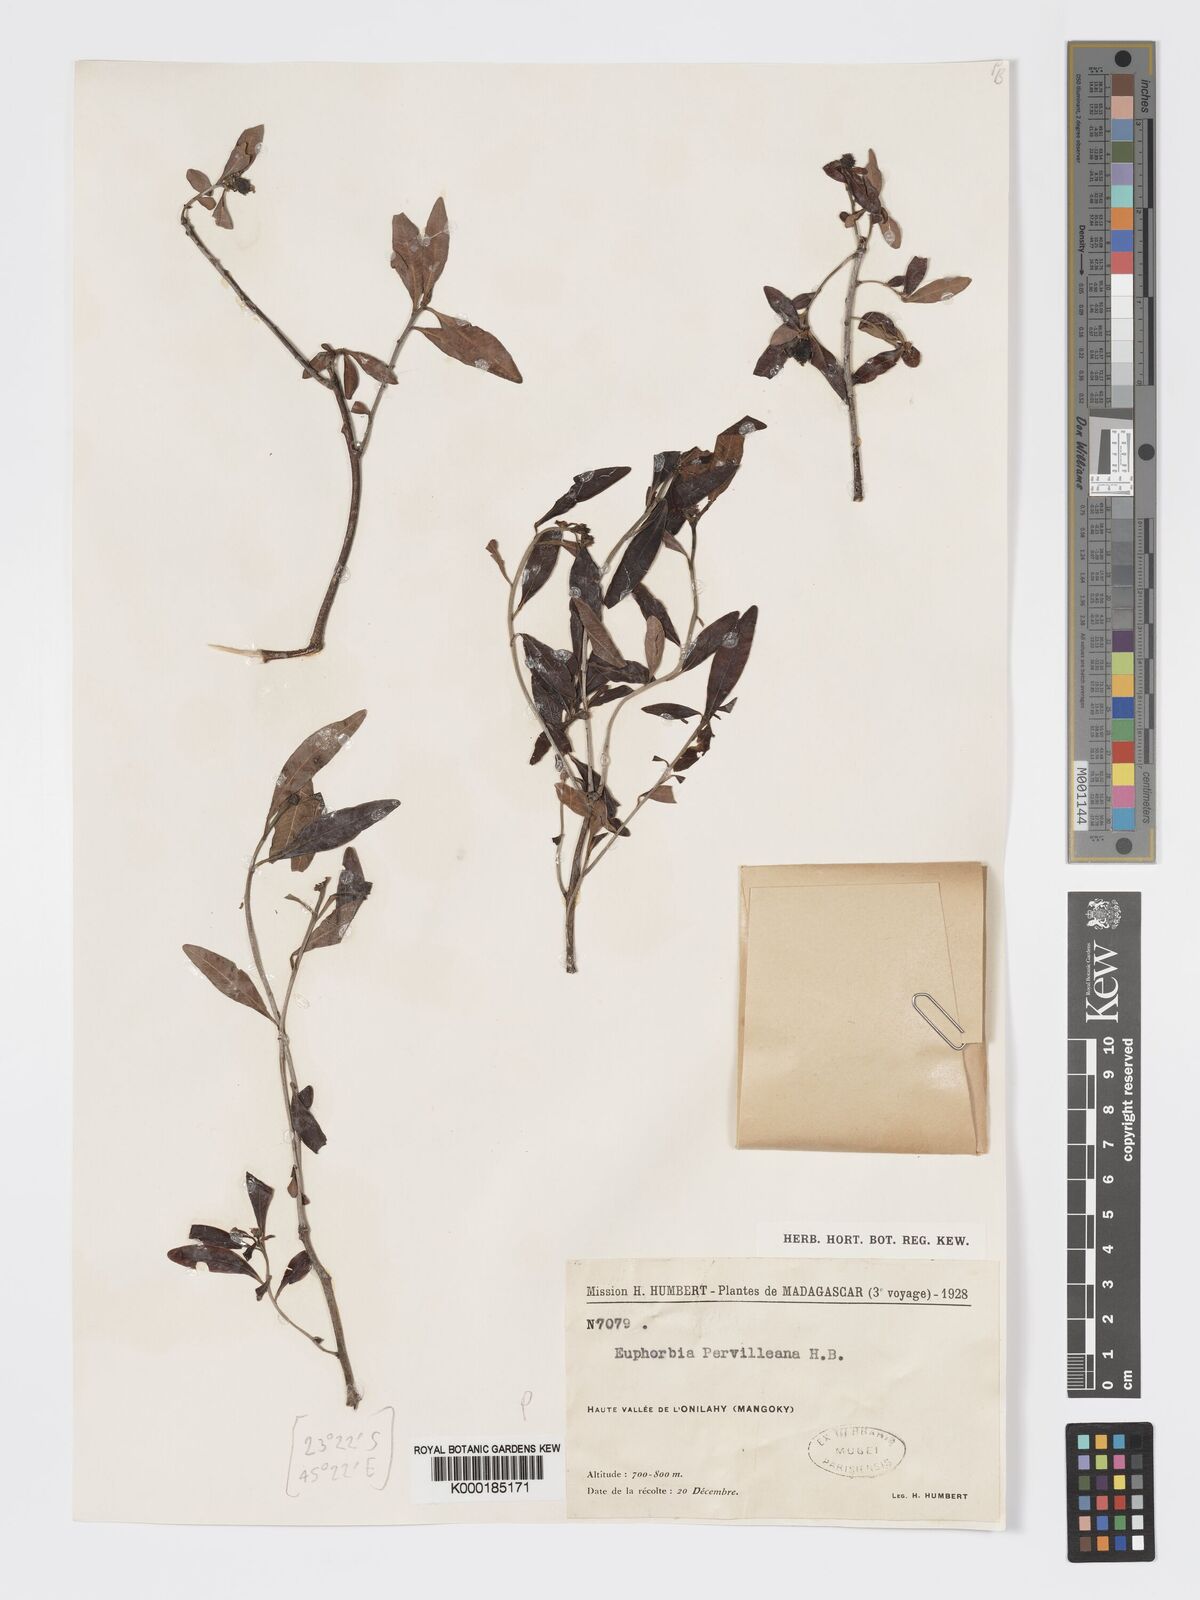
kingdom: Plantae
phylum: Tracheophyta
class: Magnoliopsida
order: Malpighiales
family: Euphorbiaceae
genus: Euphorbia
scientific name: Euphorbia pervilleana
